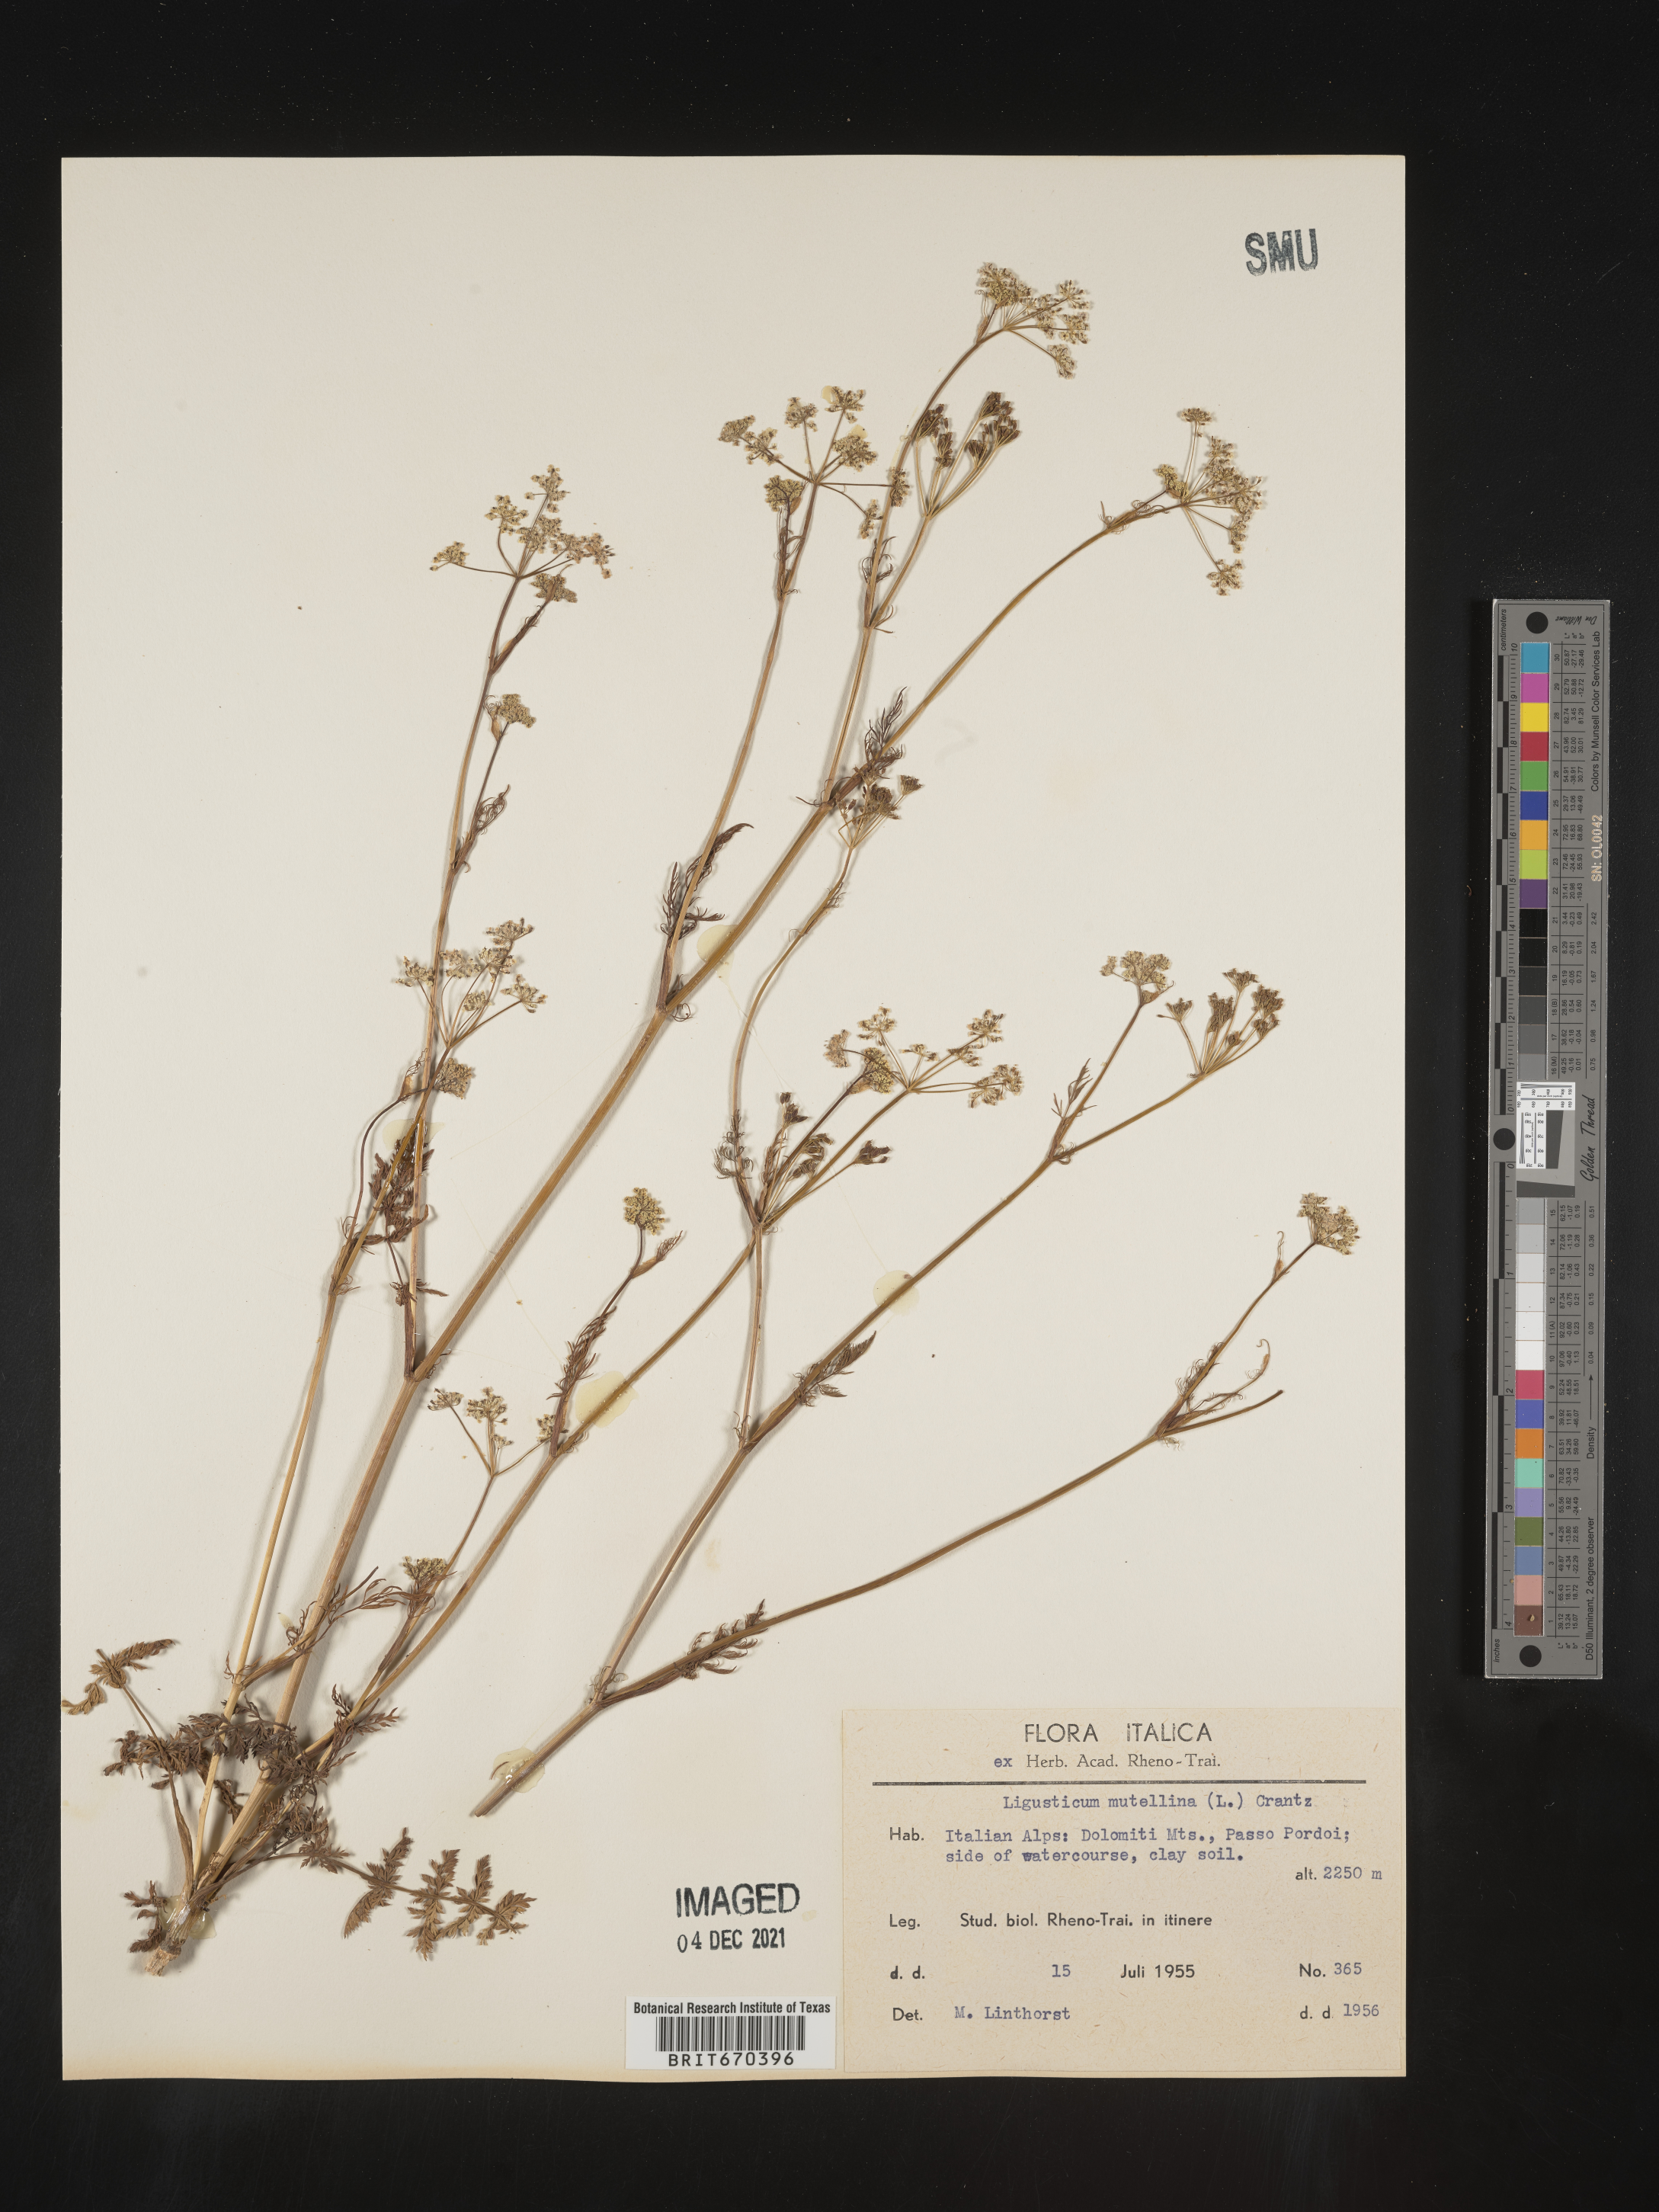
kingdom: Plantae
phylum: Tracheophyta
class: Magnoliopsida
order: Apiales
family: Apiaceae
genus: Ligusticum
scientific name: Ligusticum
